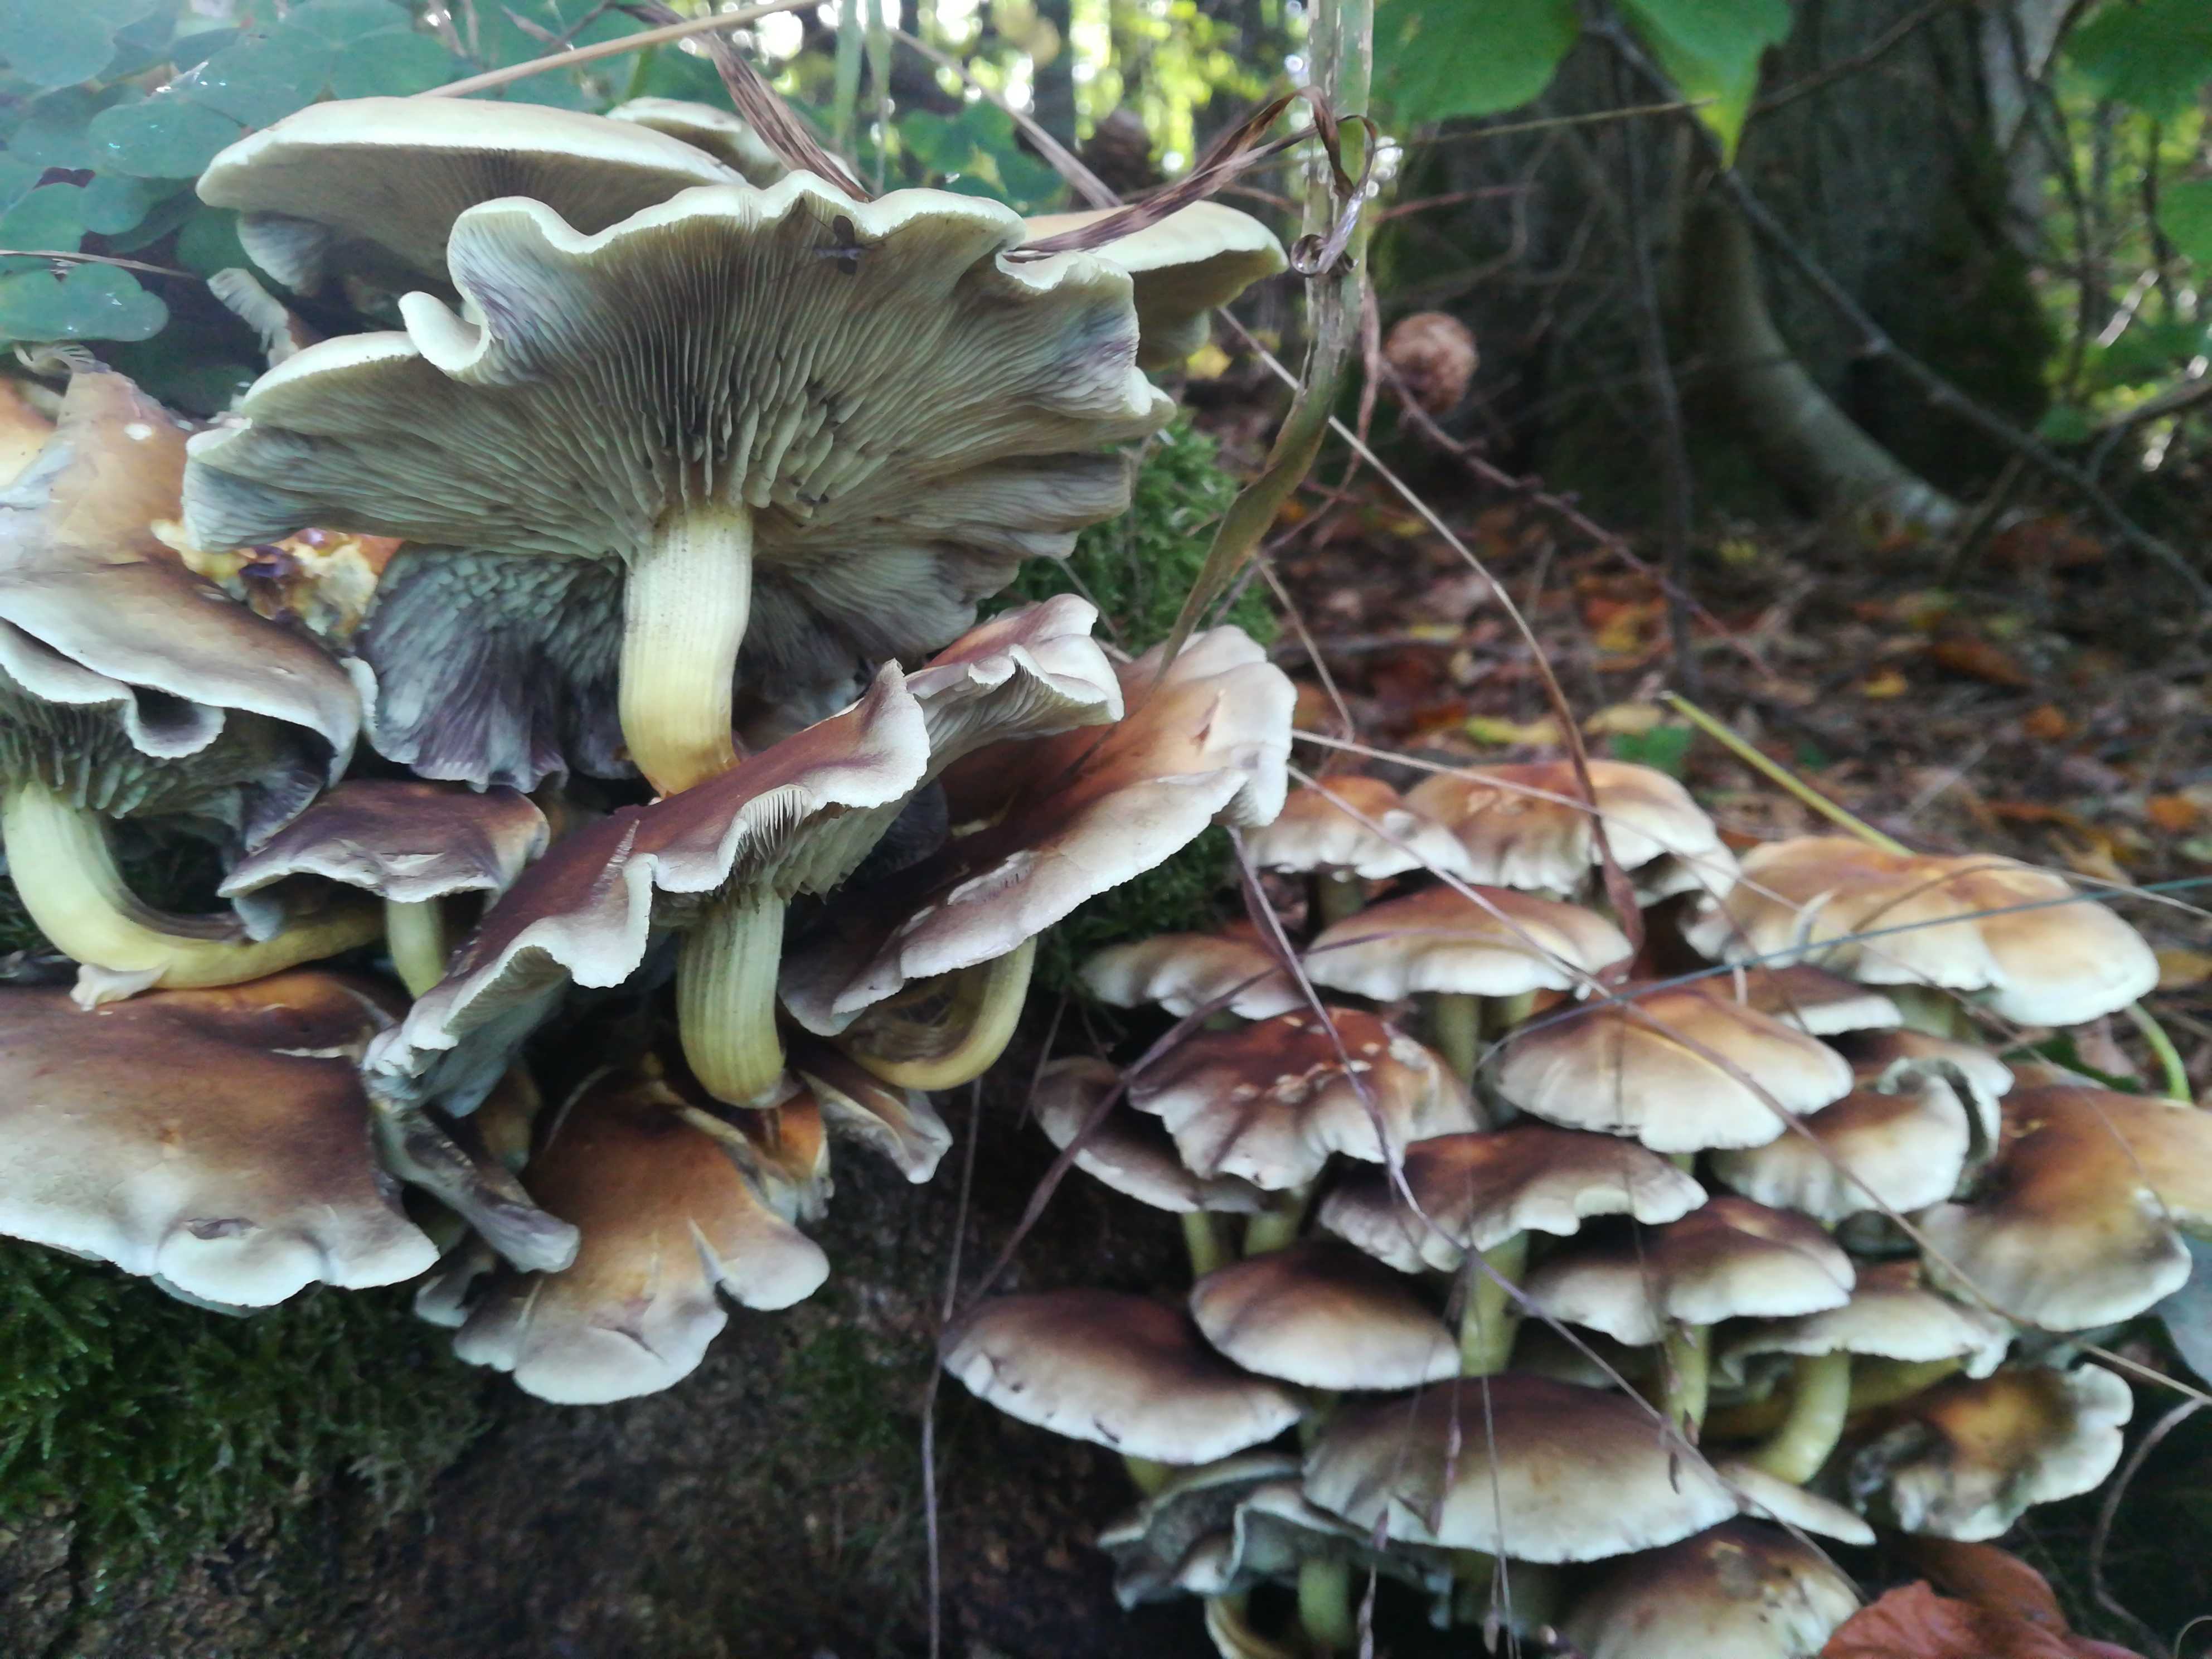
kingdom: Fungi
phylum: Basidiomycota
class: Agaricomycetes
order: Agaricales
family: Strophariaceae
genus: Hypholoma
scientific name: Hypholoma fasciculare
